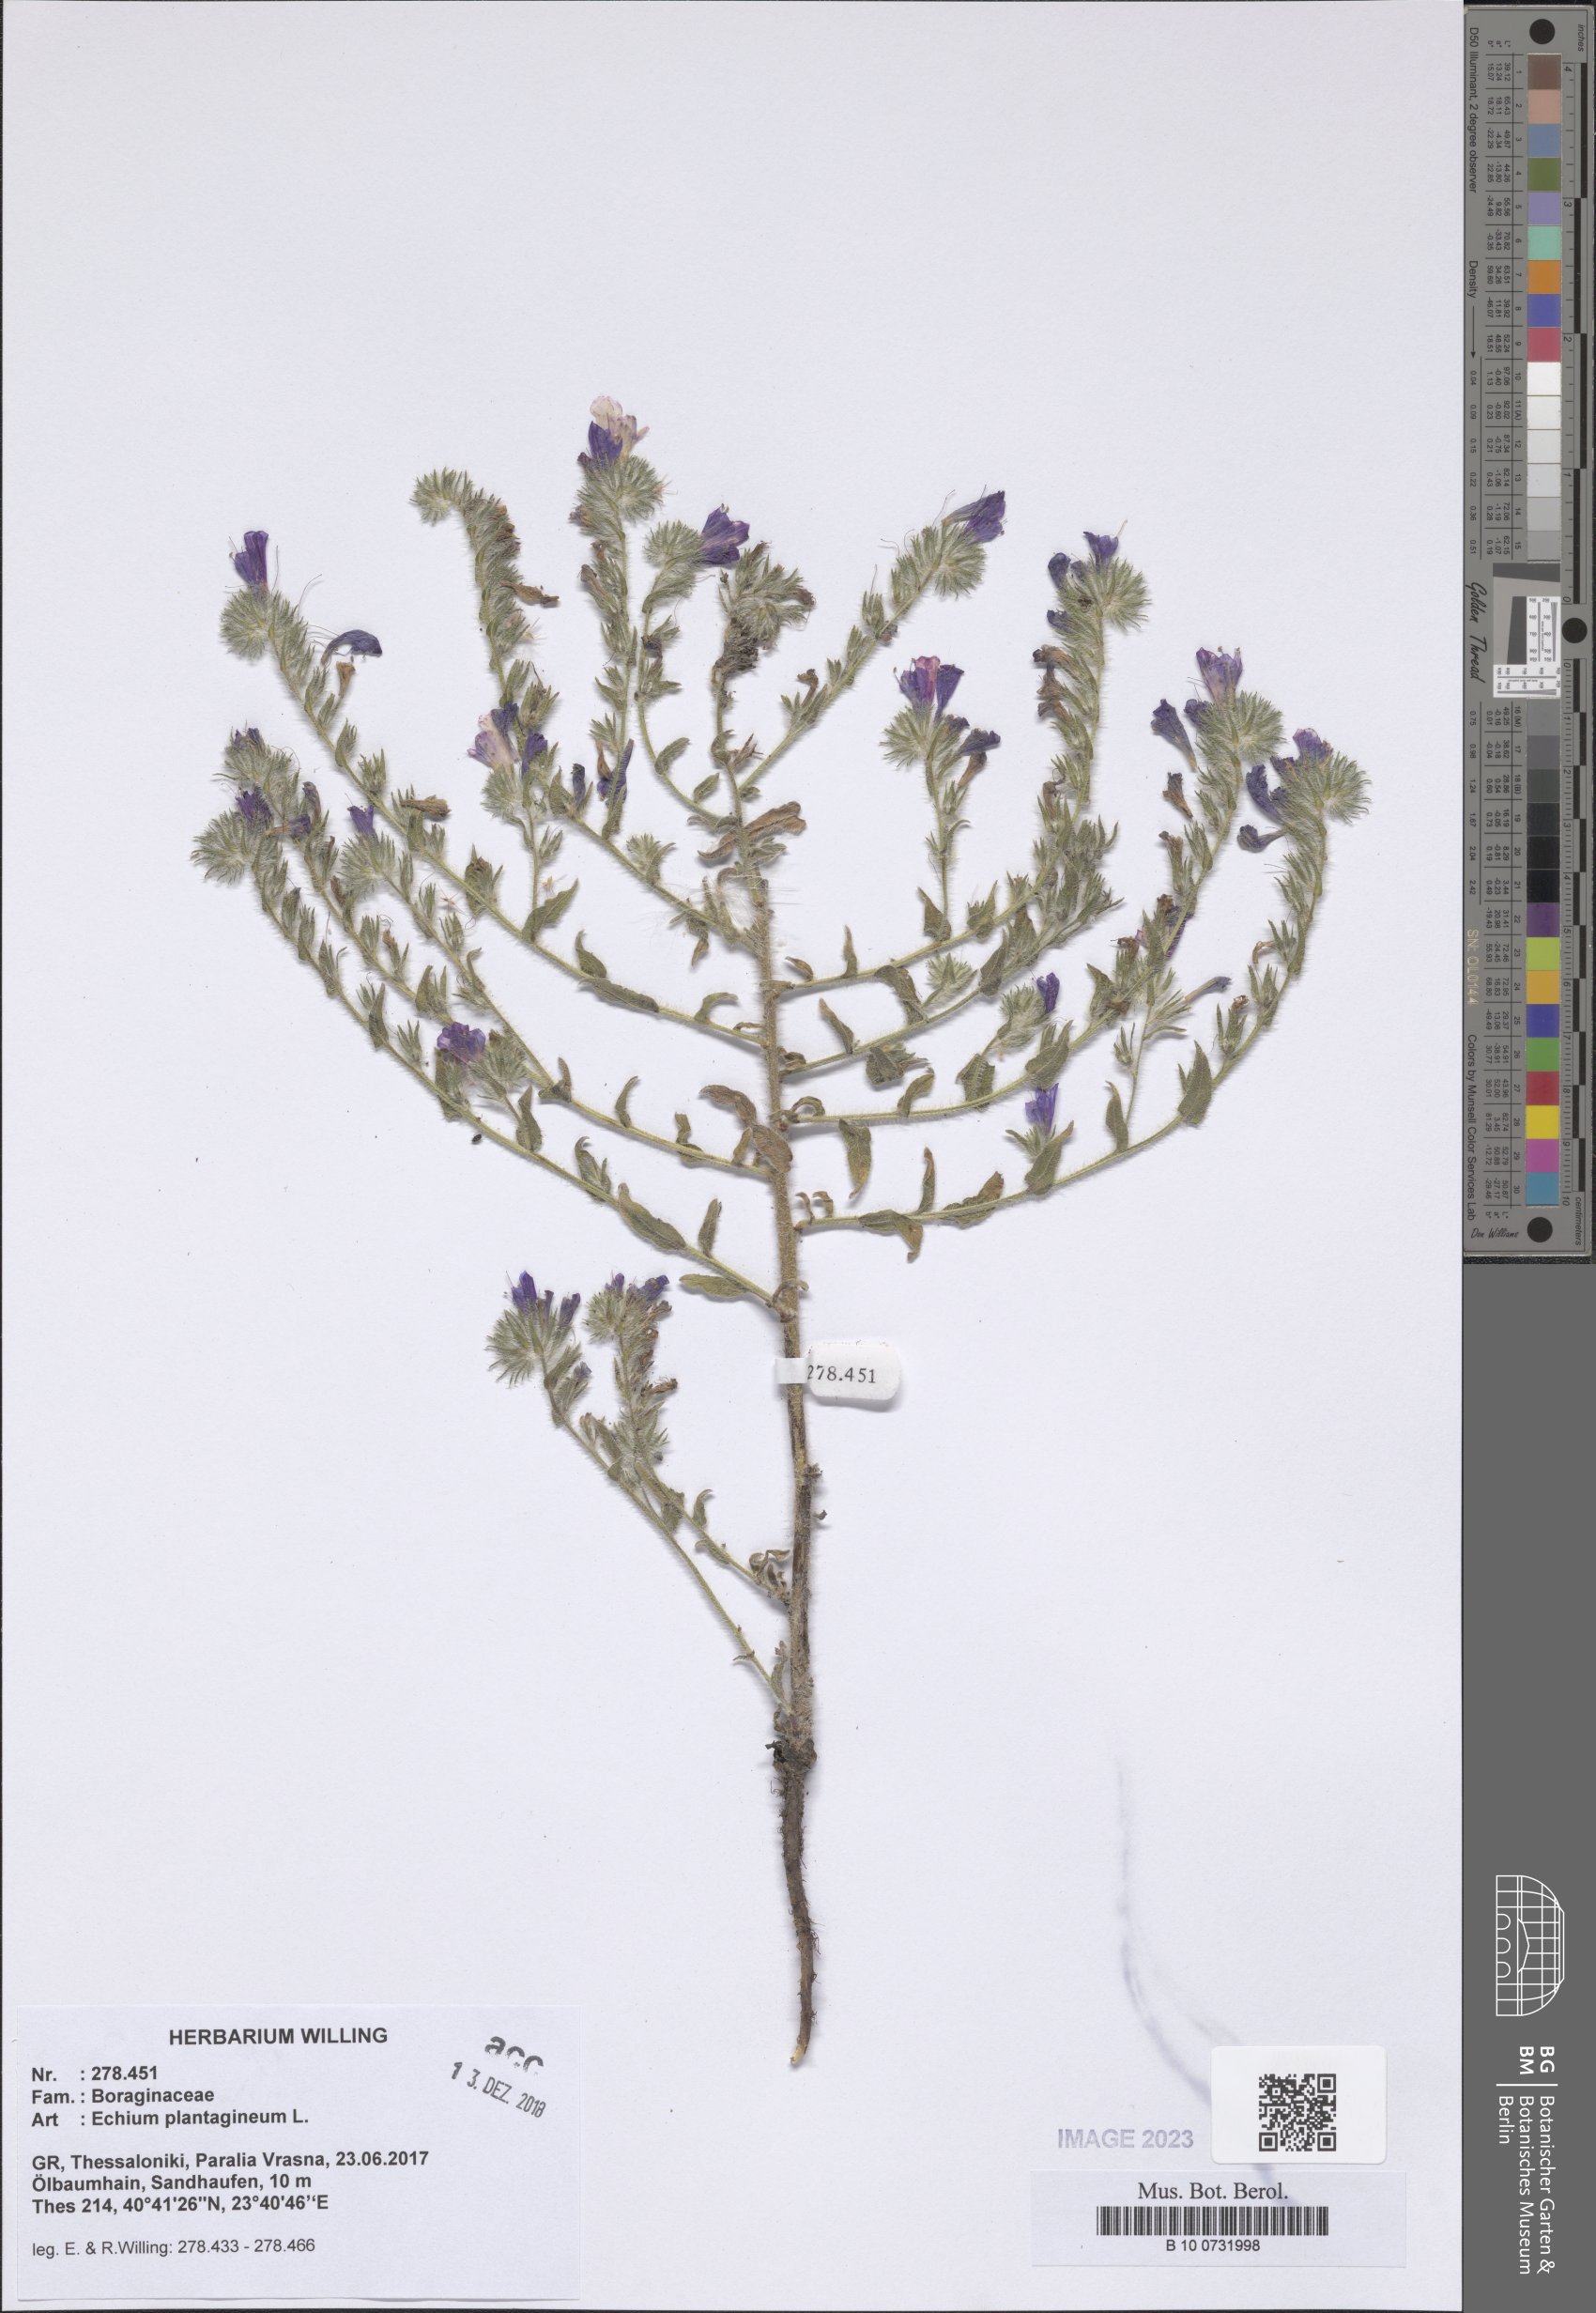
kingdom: Plantae
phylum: Tracheophyta
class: Magnoliopsida
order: Boraginales
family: Boraginaceae
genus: Echium
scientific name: Echium plantagineum
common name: Purple viper's-bugloss
